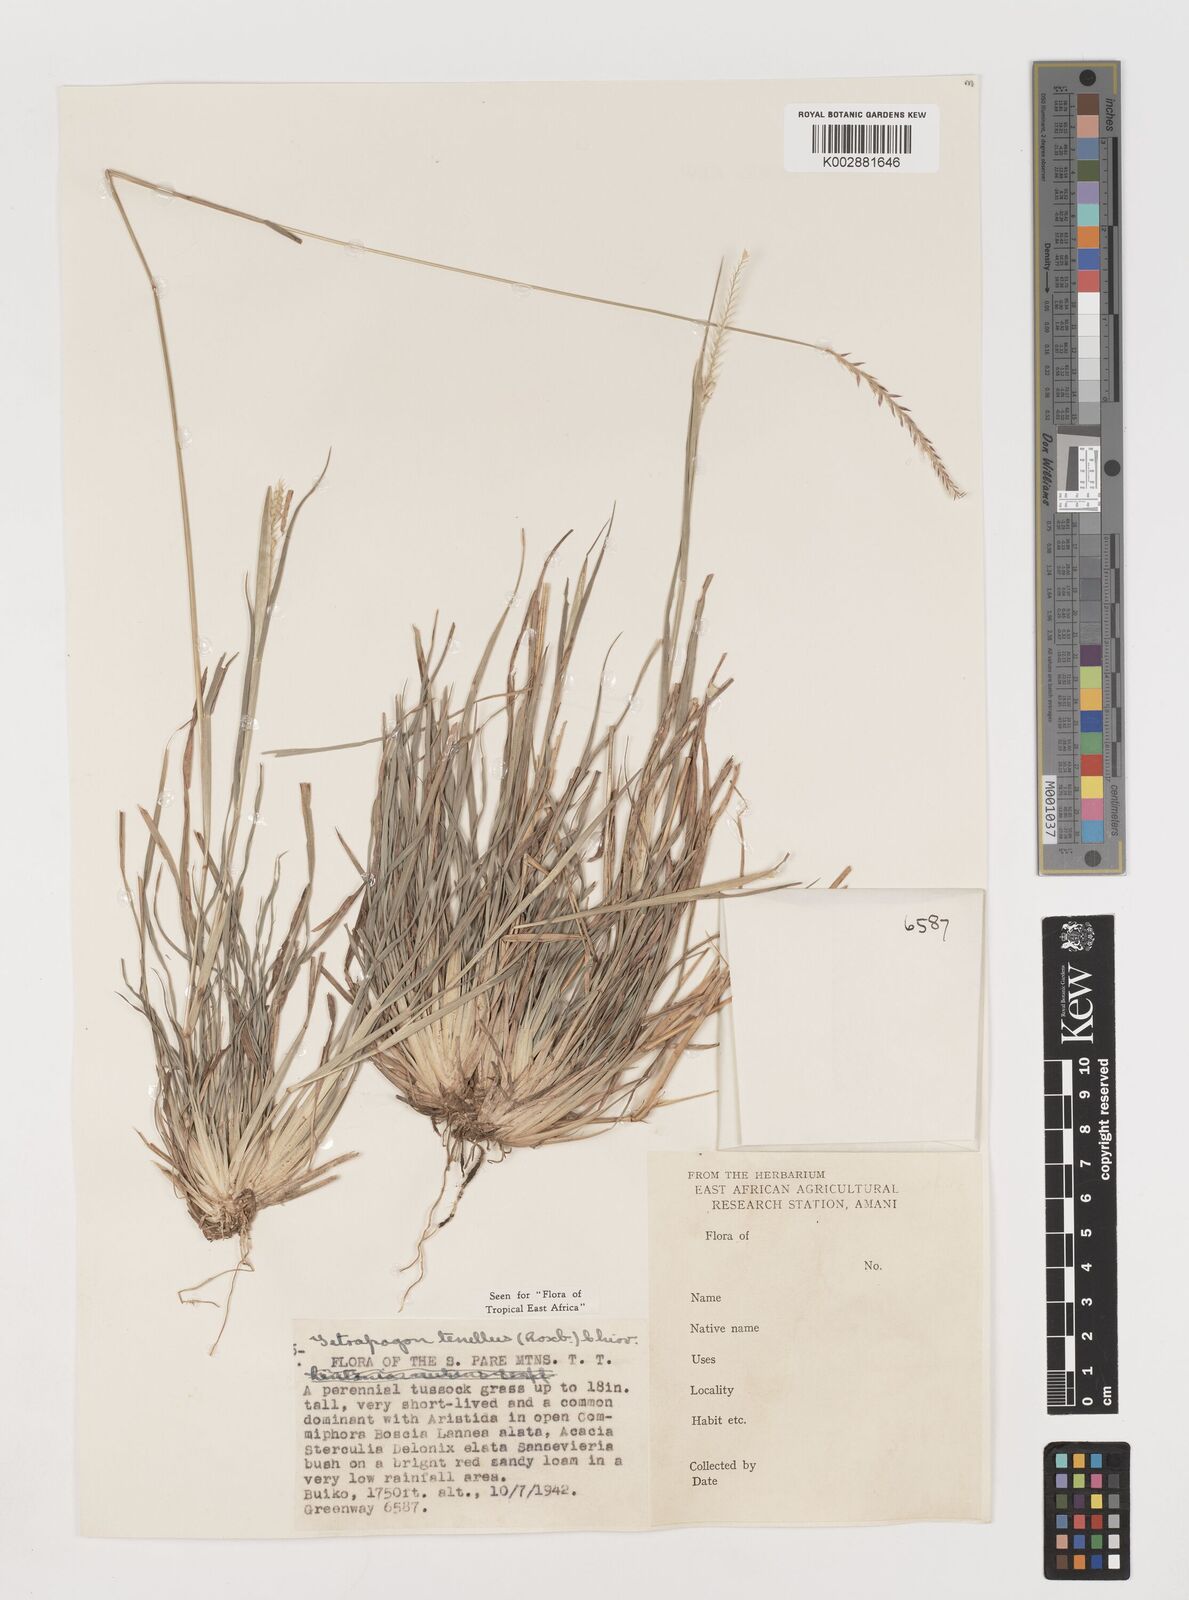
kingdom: Plantae
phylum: Tracheophyta
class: Liliopsida
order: Poales
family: Poaceae
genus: Tetrapogon
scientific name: Tetrapogon tenellus
